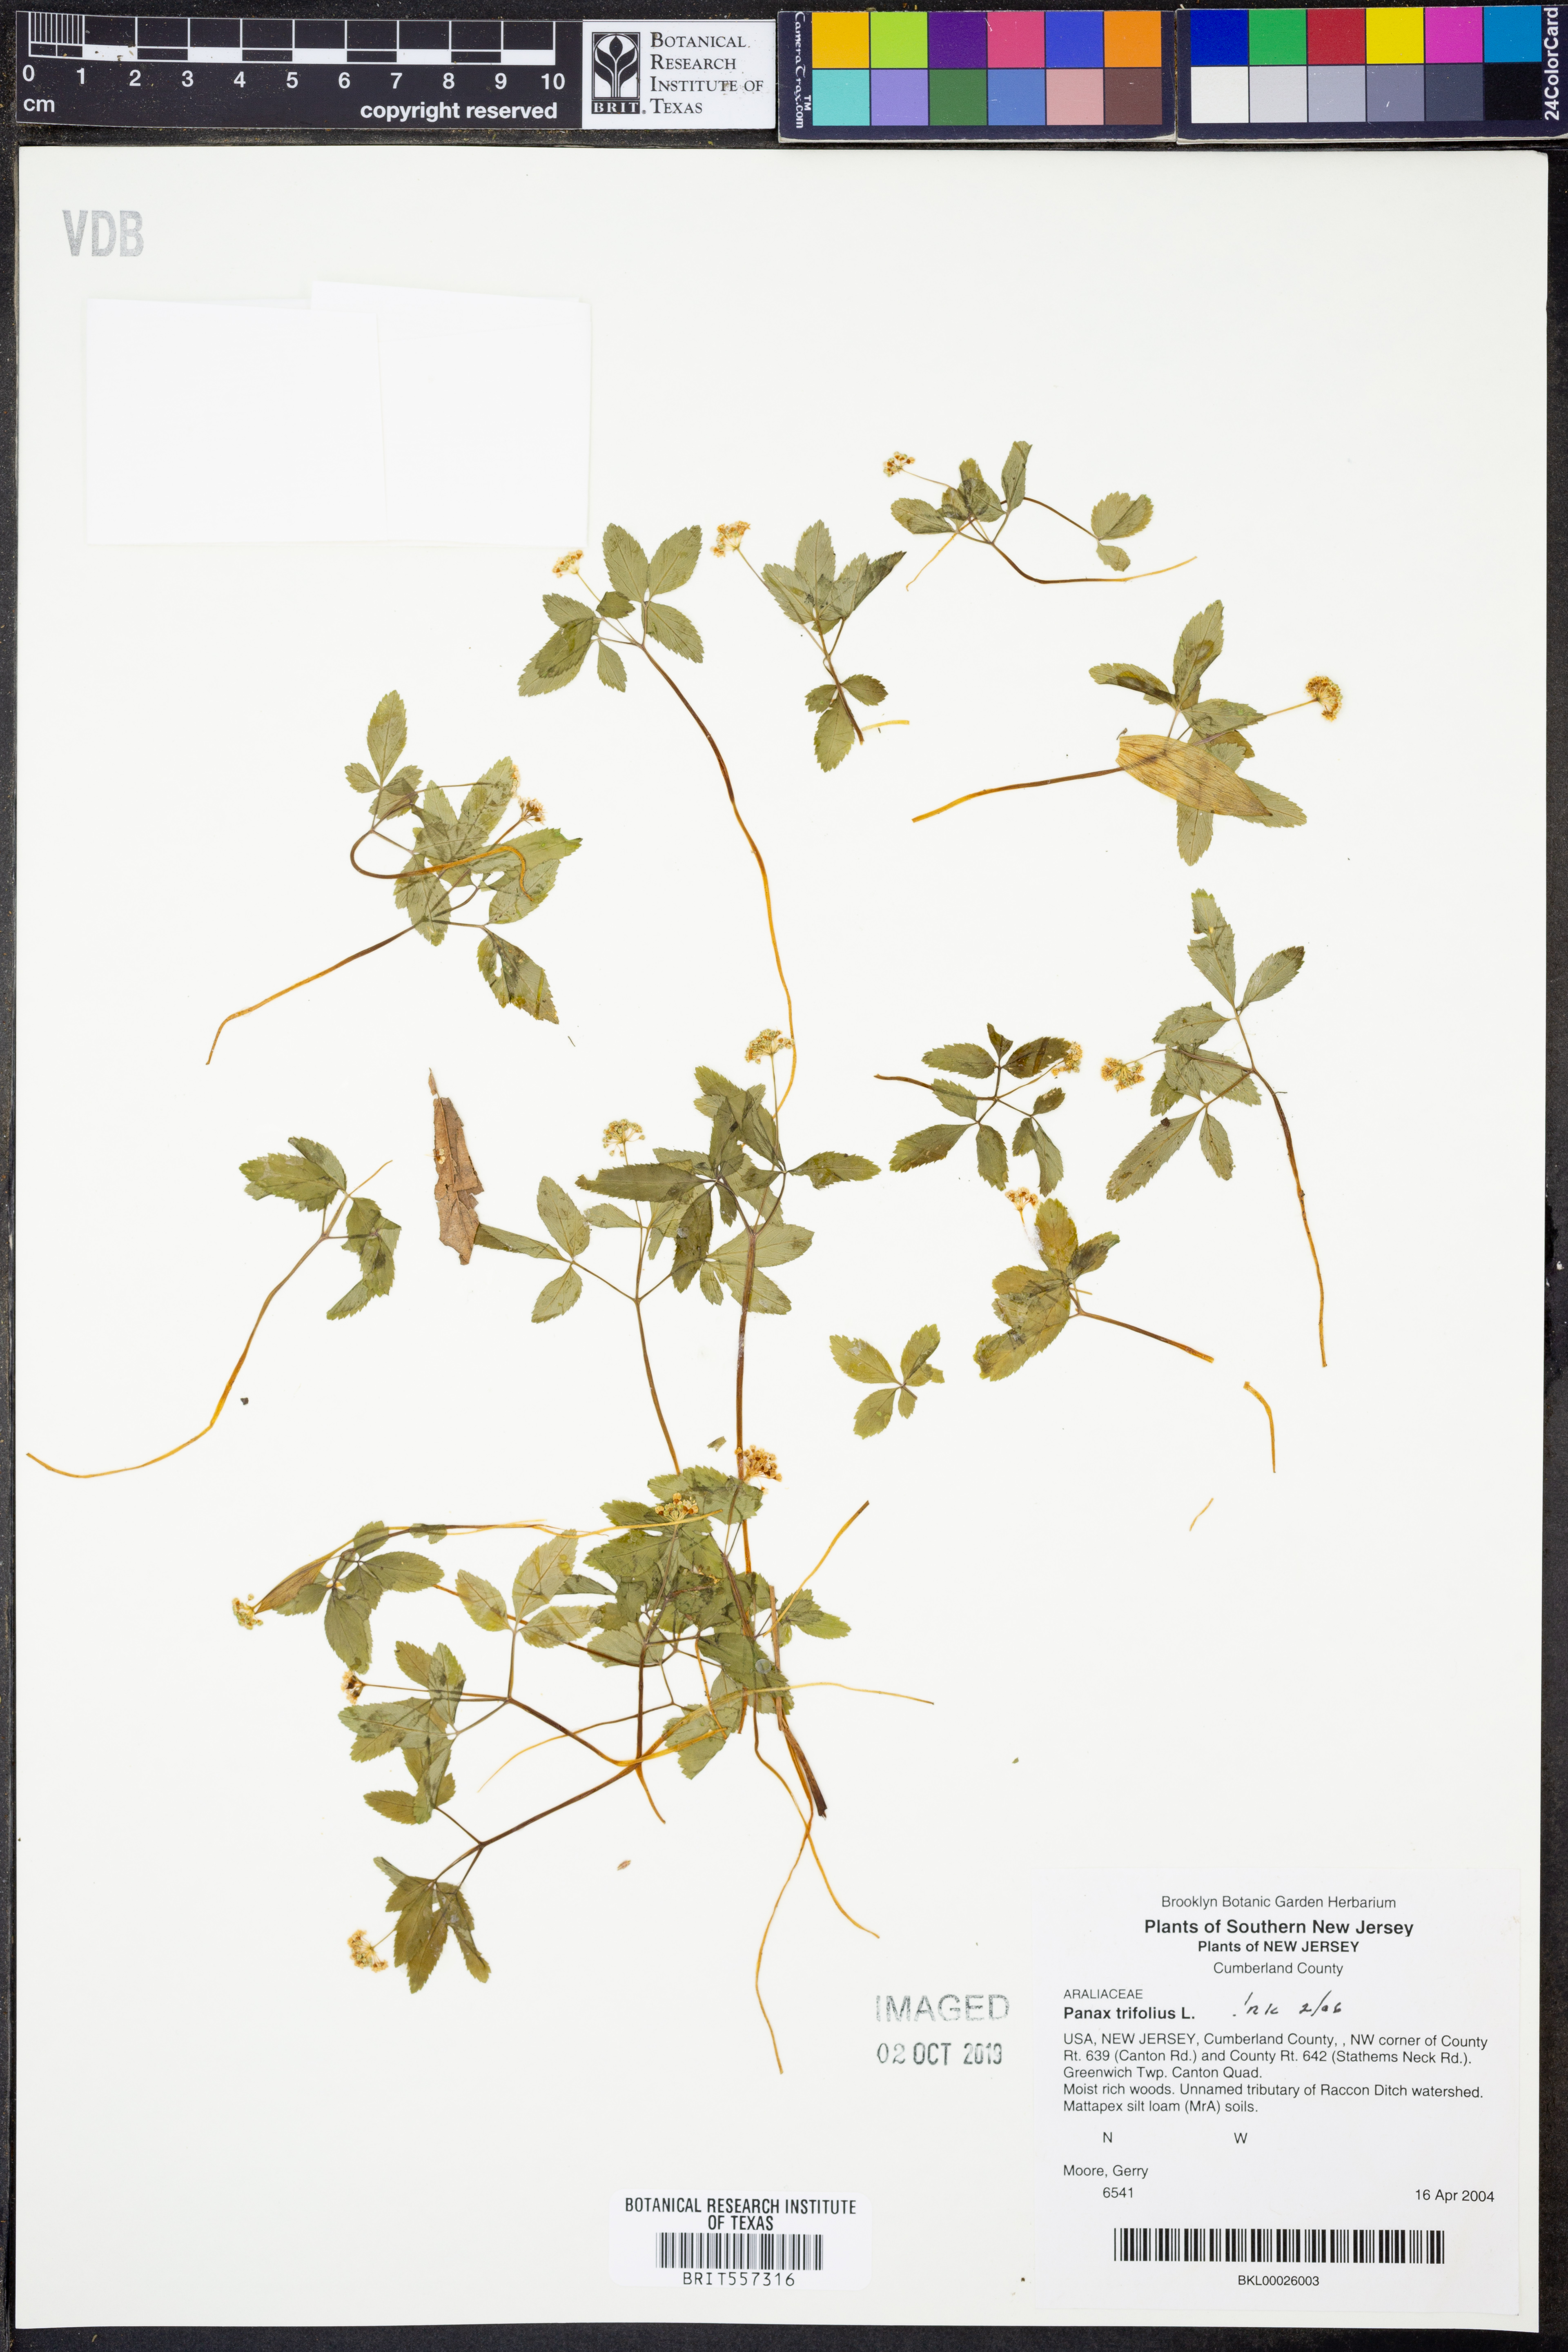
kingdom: Plantae
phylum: Tracheophyta
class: Magnoliopsida
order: Apiales
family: Araliaceae
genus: Panax
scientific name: Panax trifolius
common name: Dwarf ginseng
